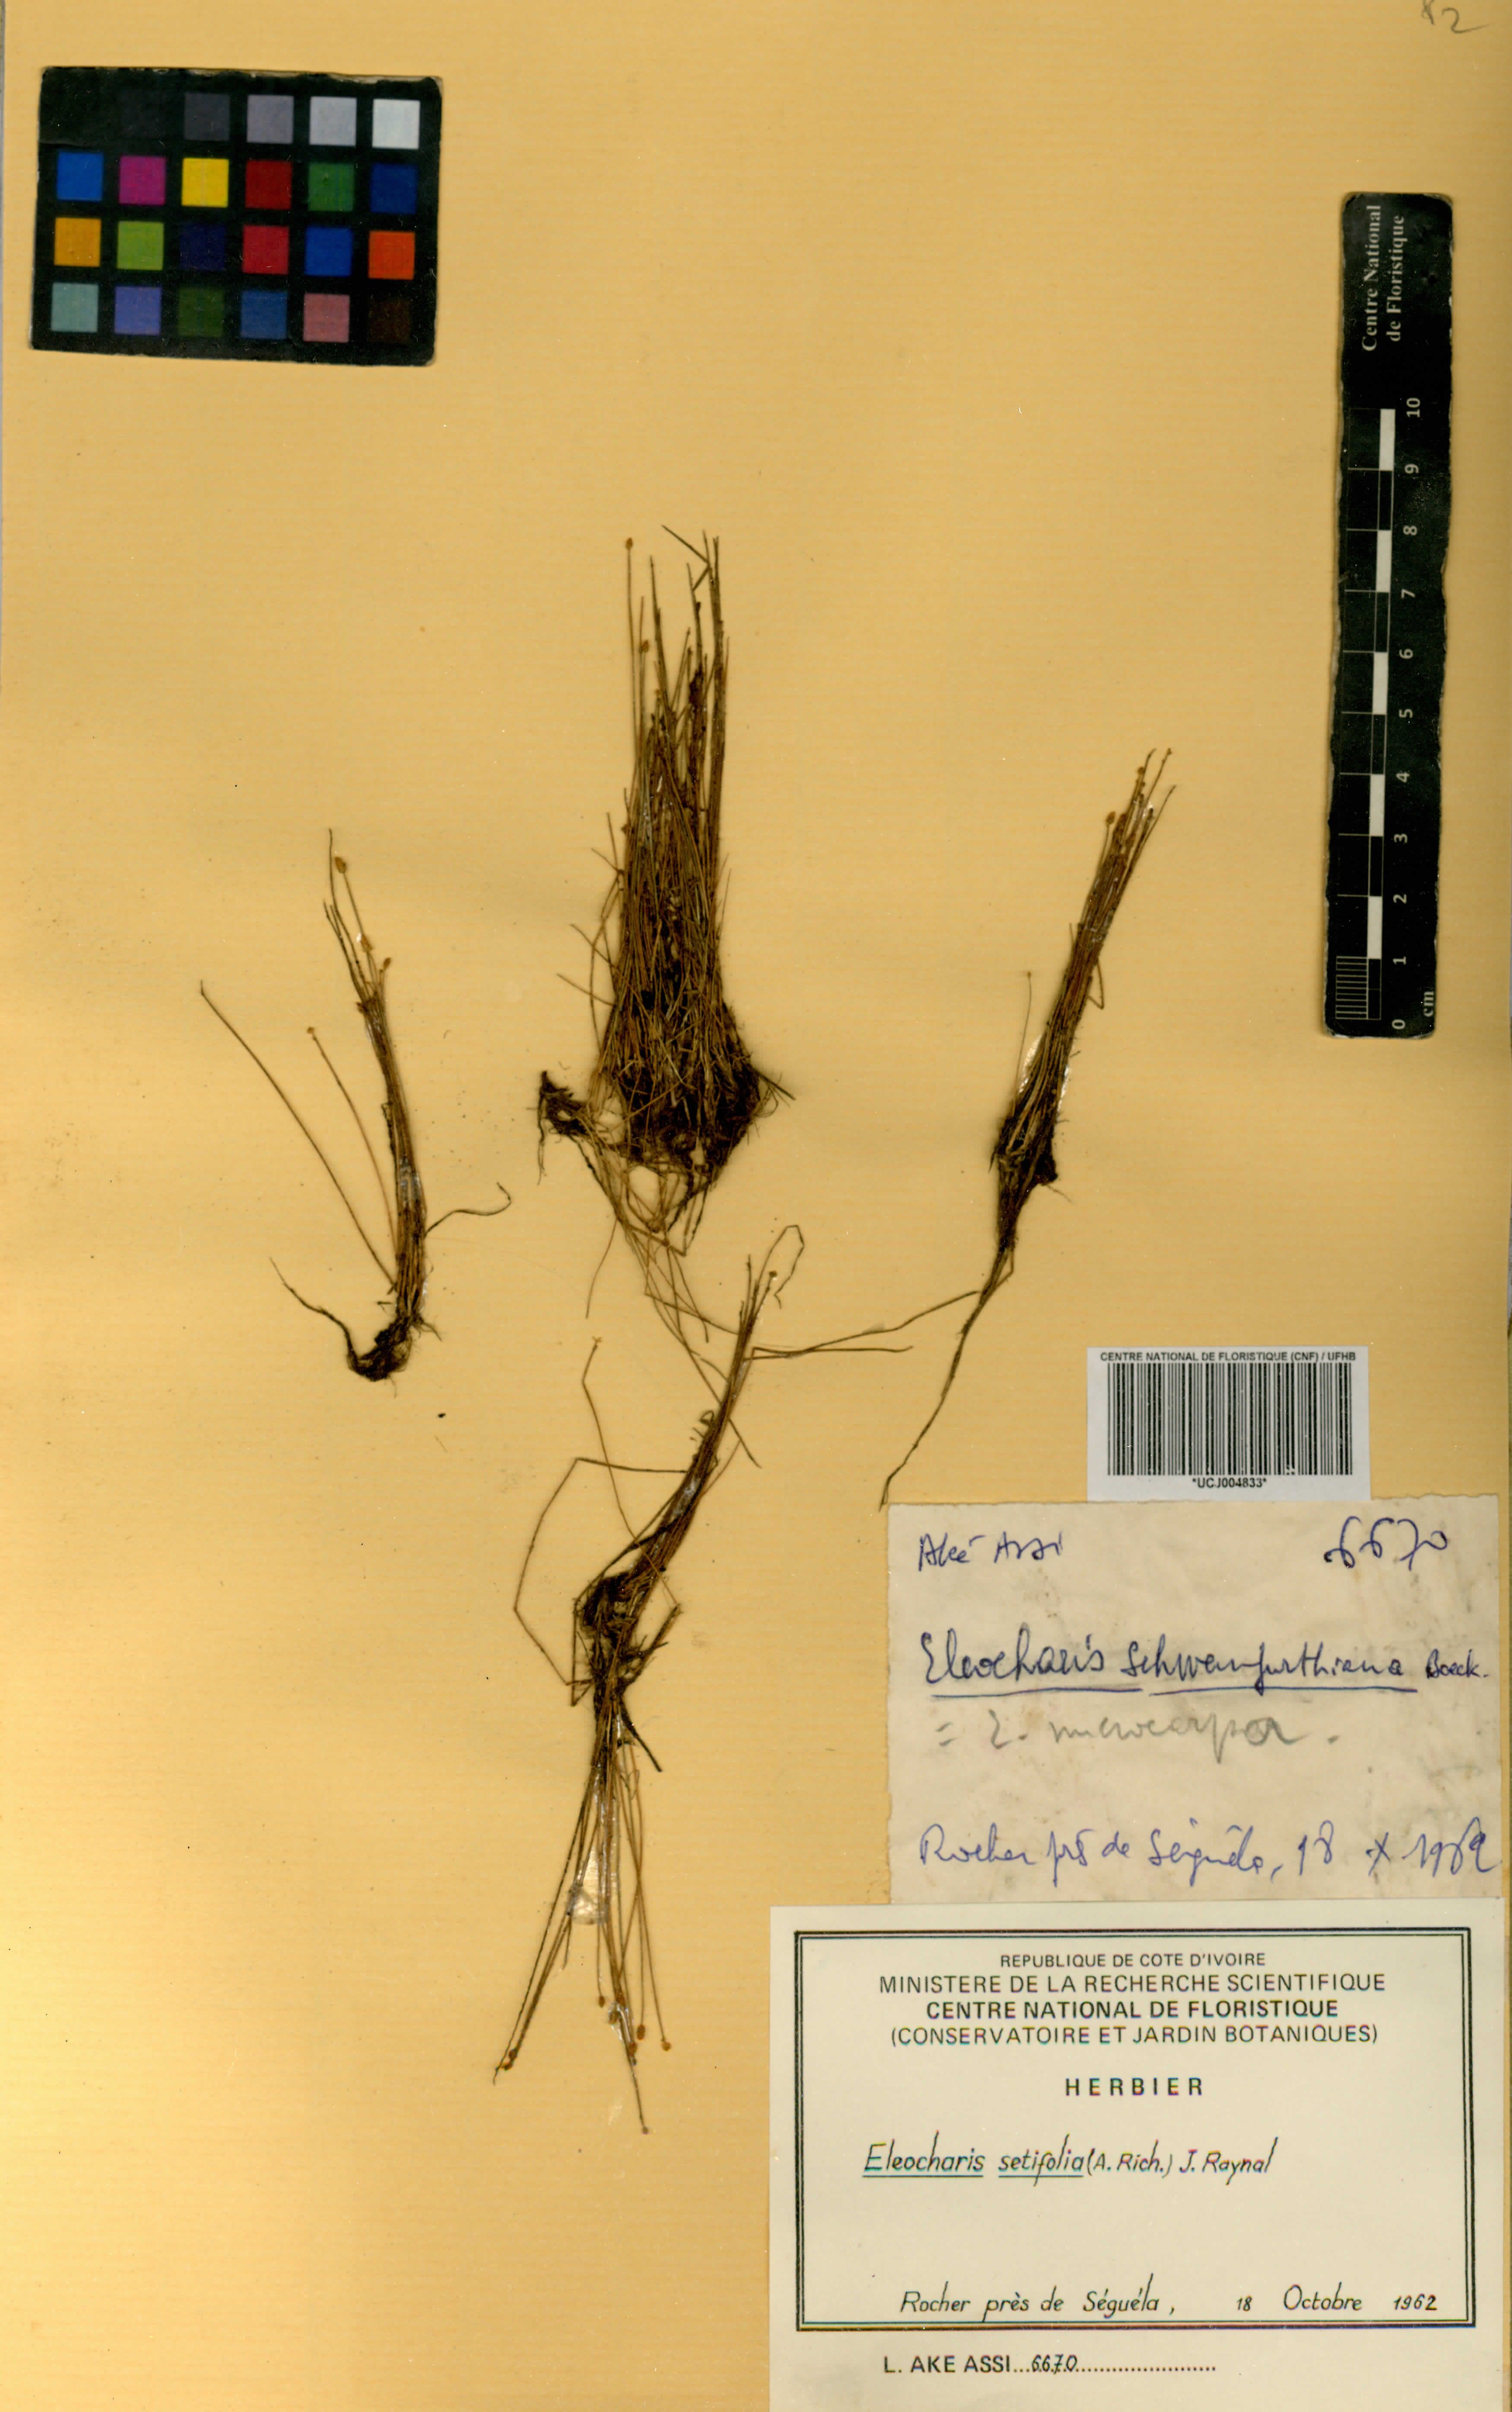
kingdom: Plantae
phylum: Tracheophyta
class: Liliopsida
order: Poales
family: Cyperaceae
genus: Eleocharis
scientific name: Eleocharis setifolia
